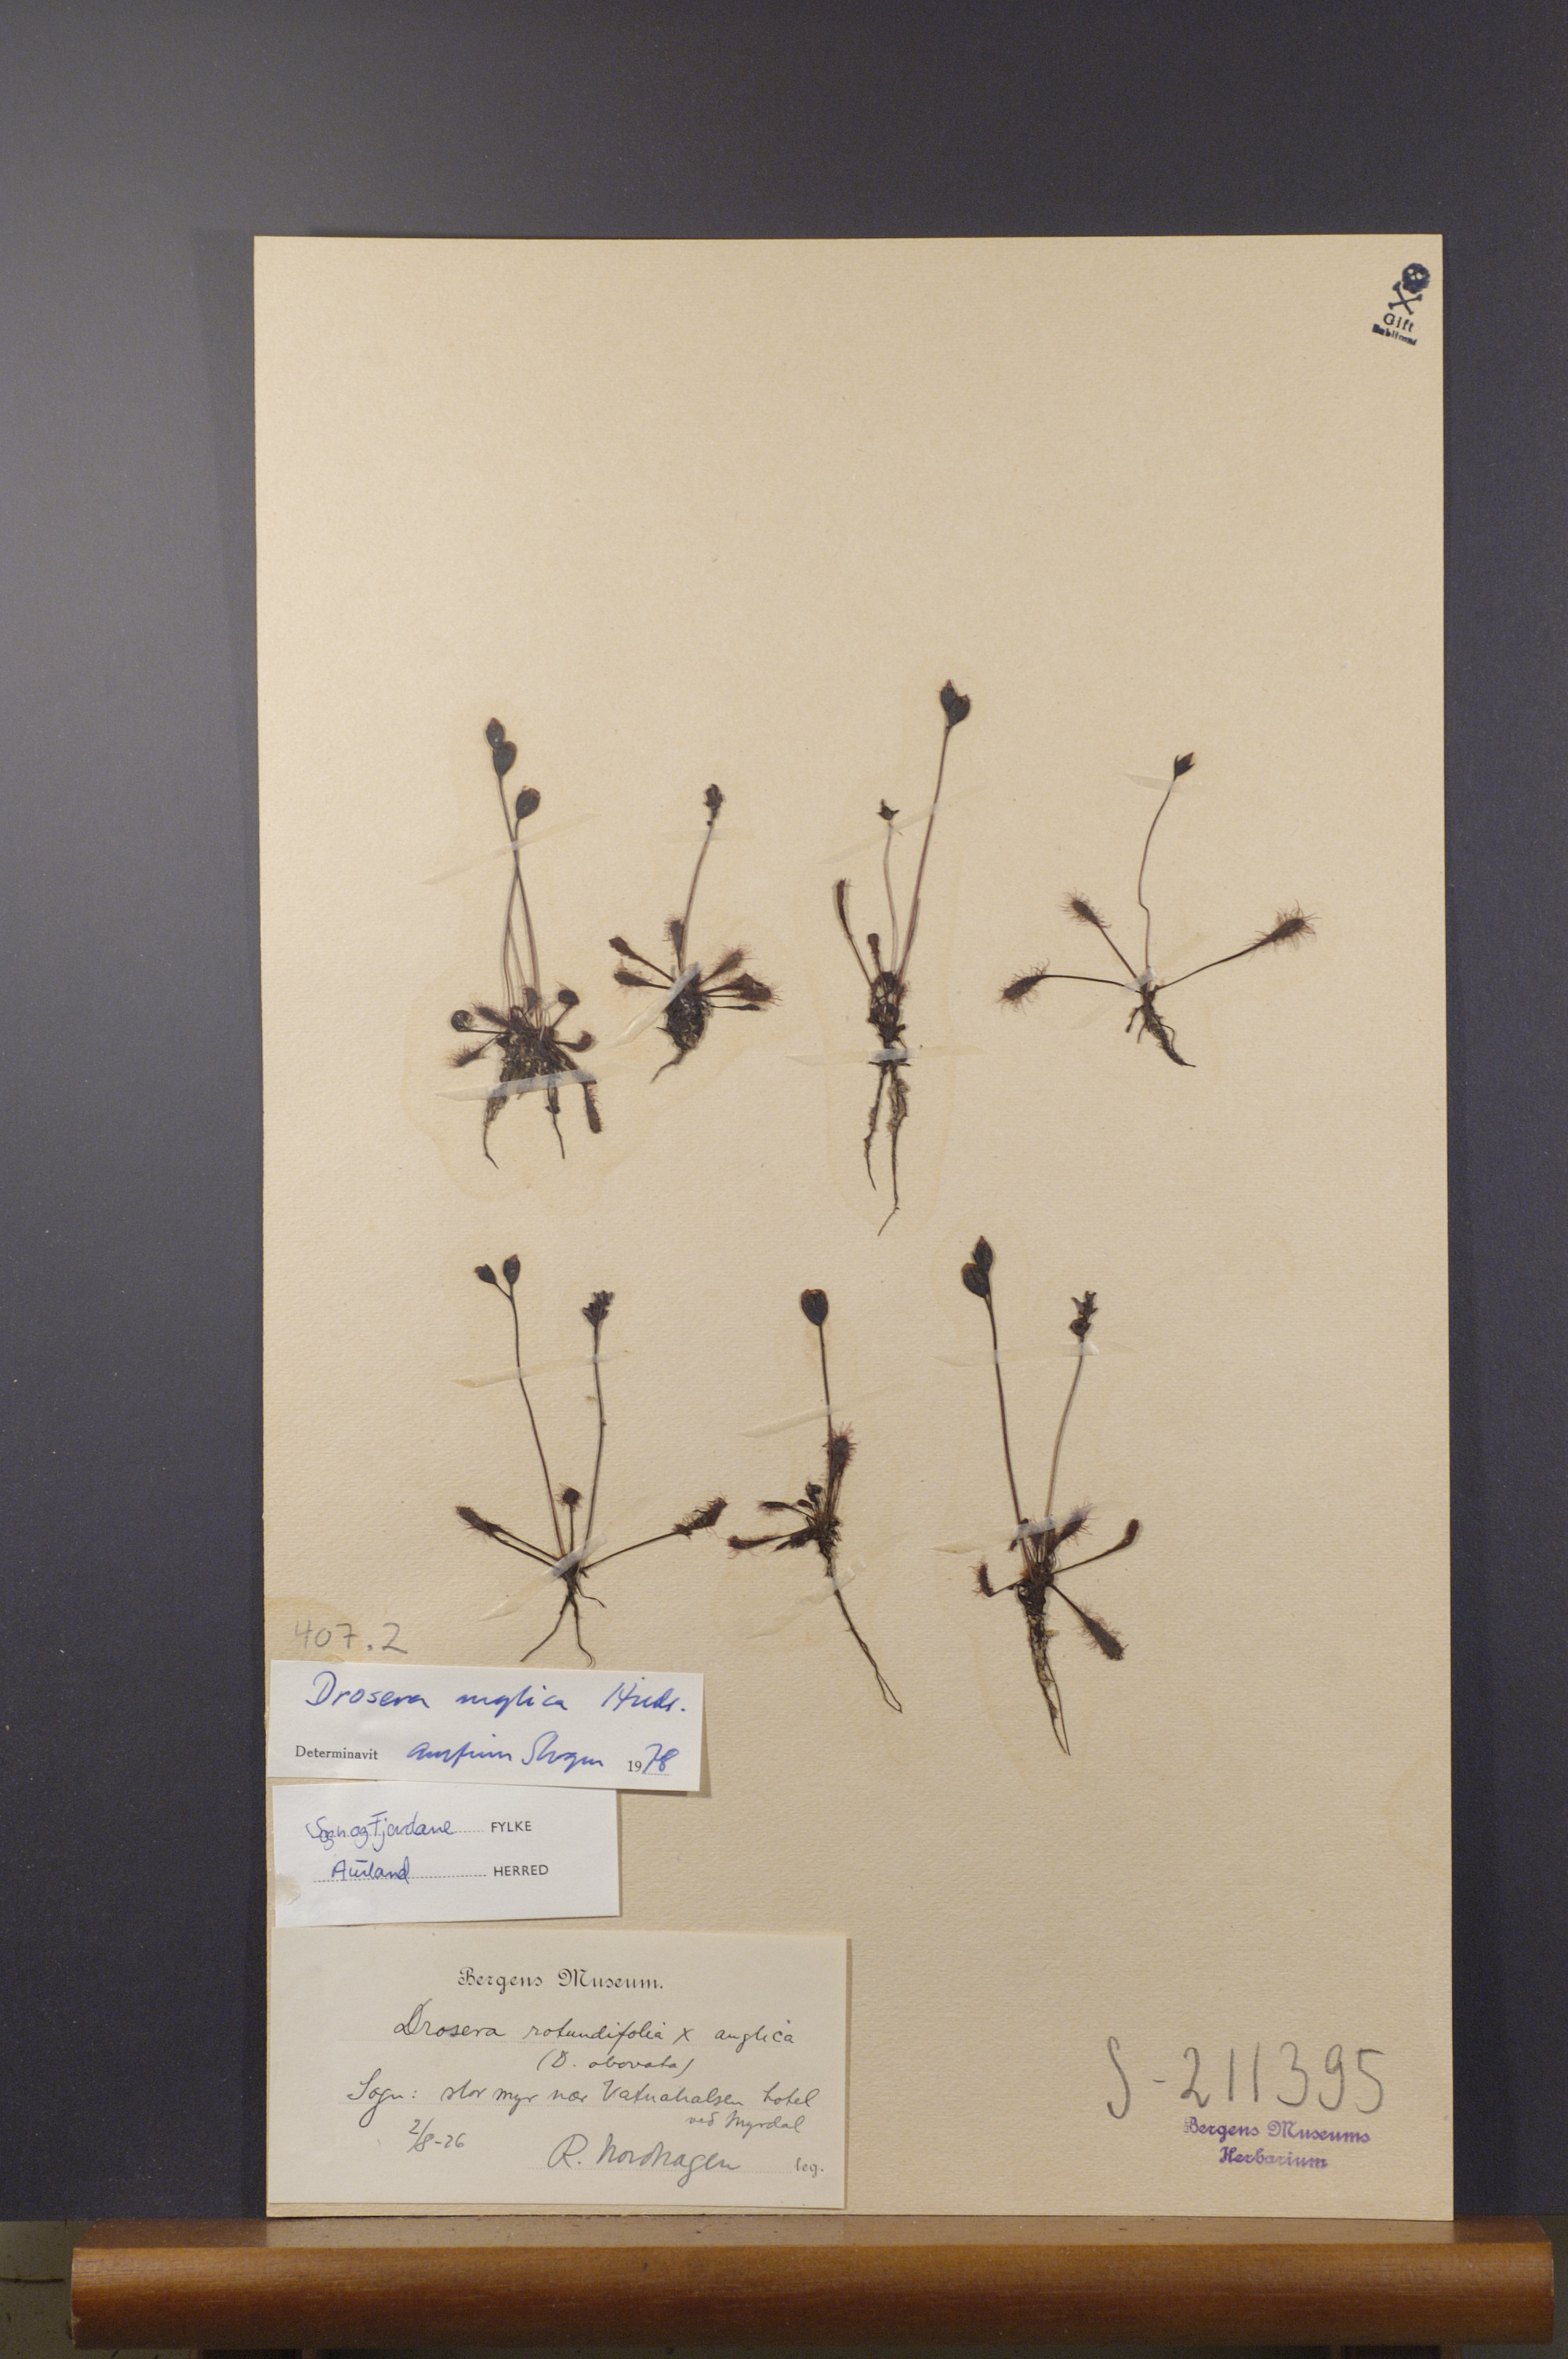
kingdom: Plantae
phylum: Tracheophyta
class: Magnoliopsida
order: Caryophyllales
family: Droseraceae
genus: Drosera
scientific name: Drosera anglica
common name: Great sundew
